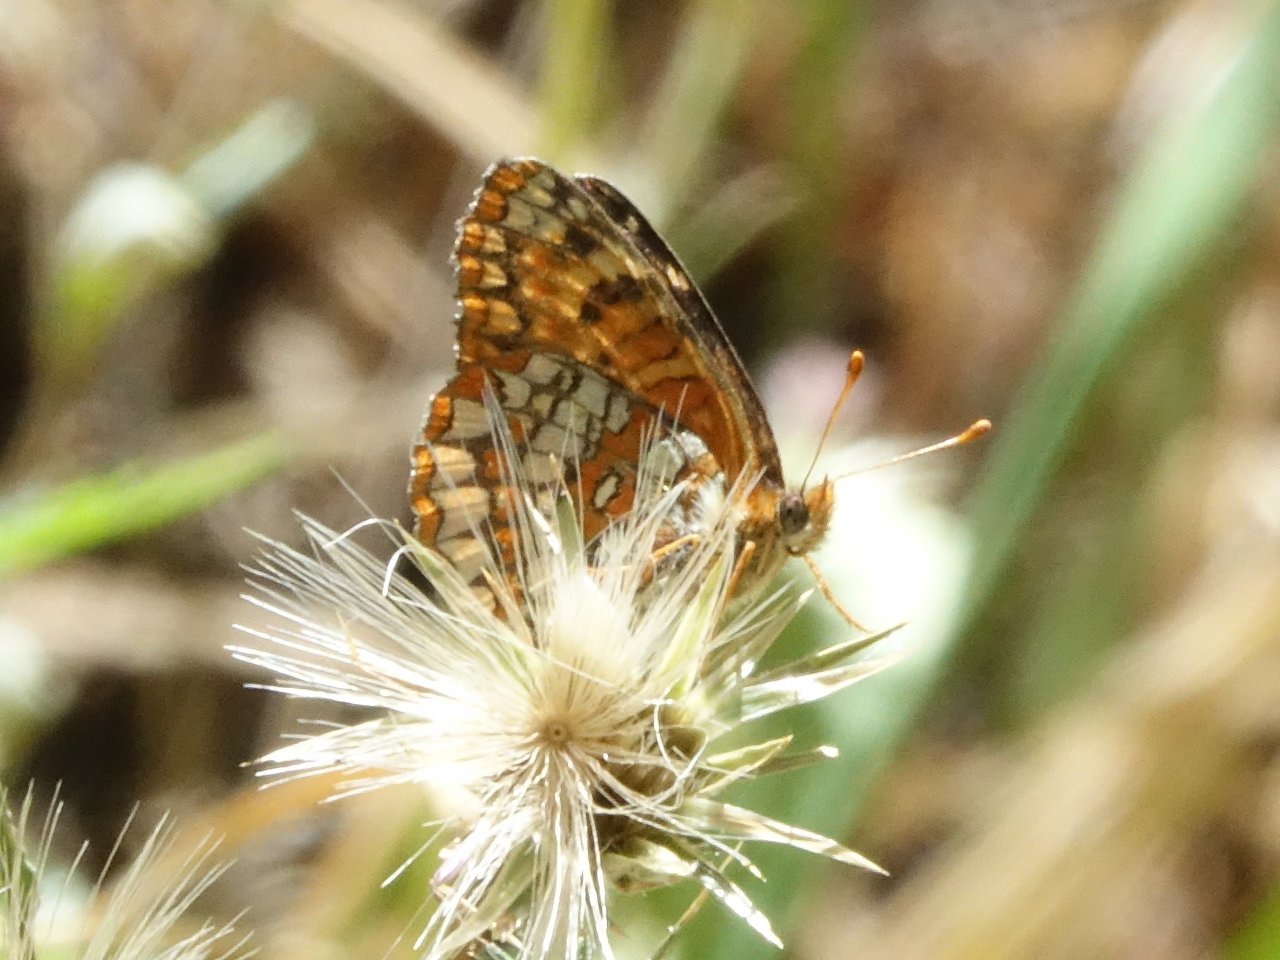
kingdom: Animalia
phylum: Arthropoda
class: Insecta
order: Lepidoptera
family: Nymphalidae
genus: Chlosyne
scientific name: Chlosyne palla
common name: Northern Checkerspot
